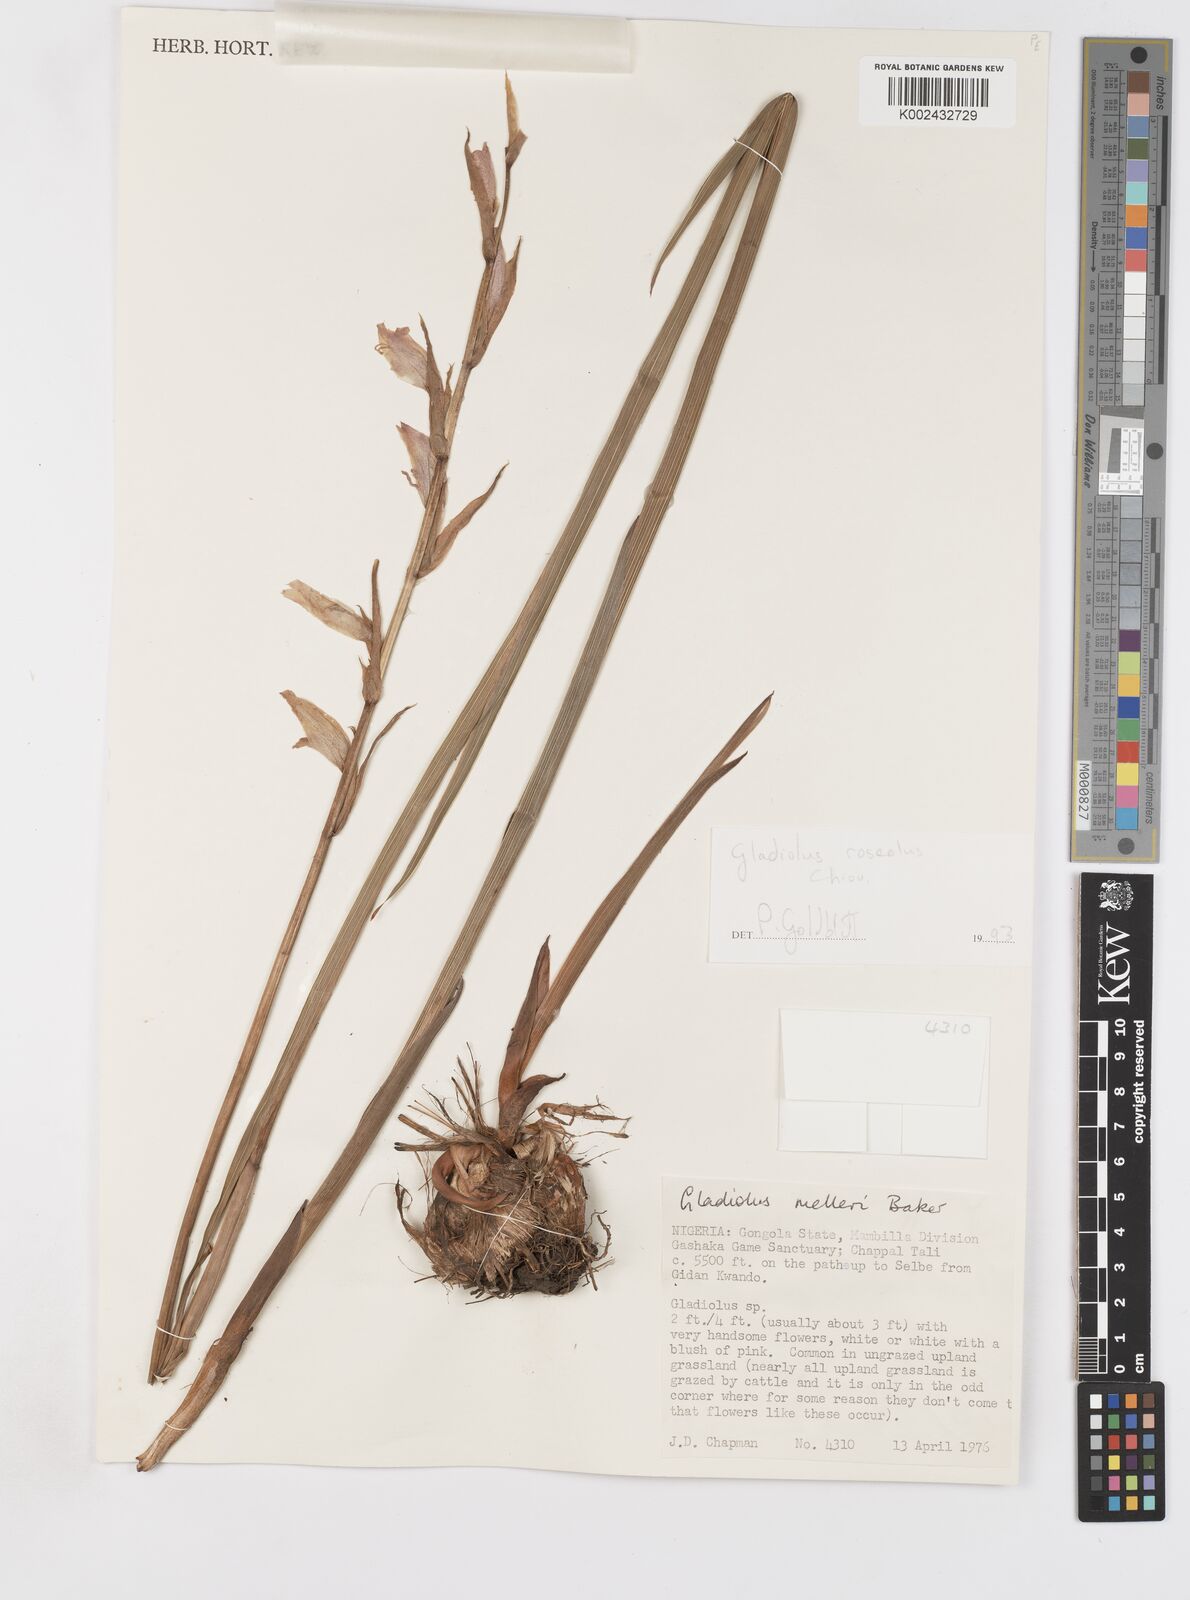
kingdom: Plantae
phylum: Tracheophyta
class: Liliopsida
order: Asparagales
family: Iridaceae
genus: Gladiolus
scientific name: Gladiolus roseolus
